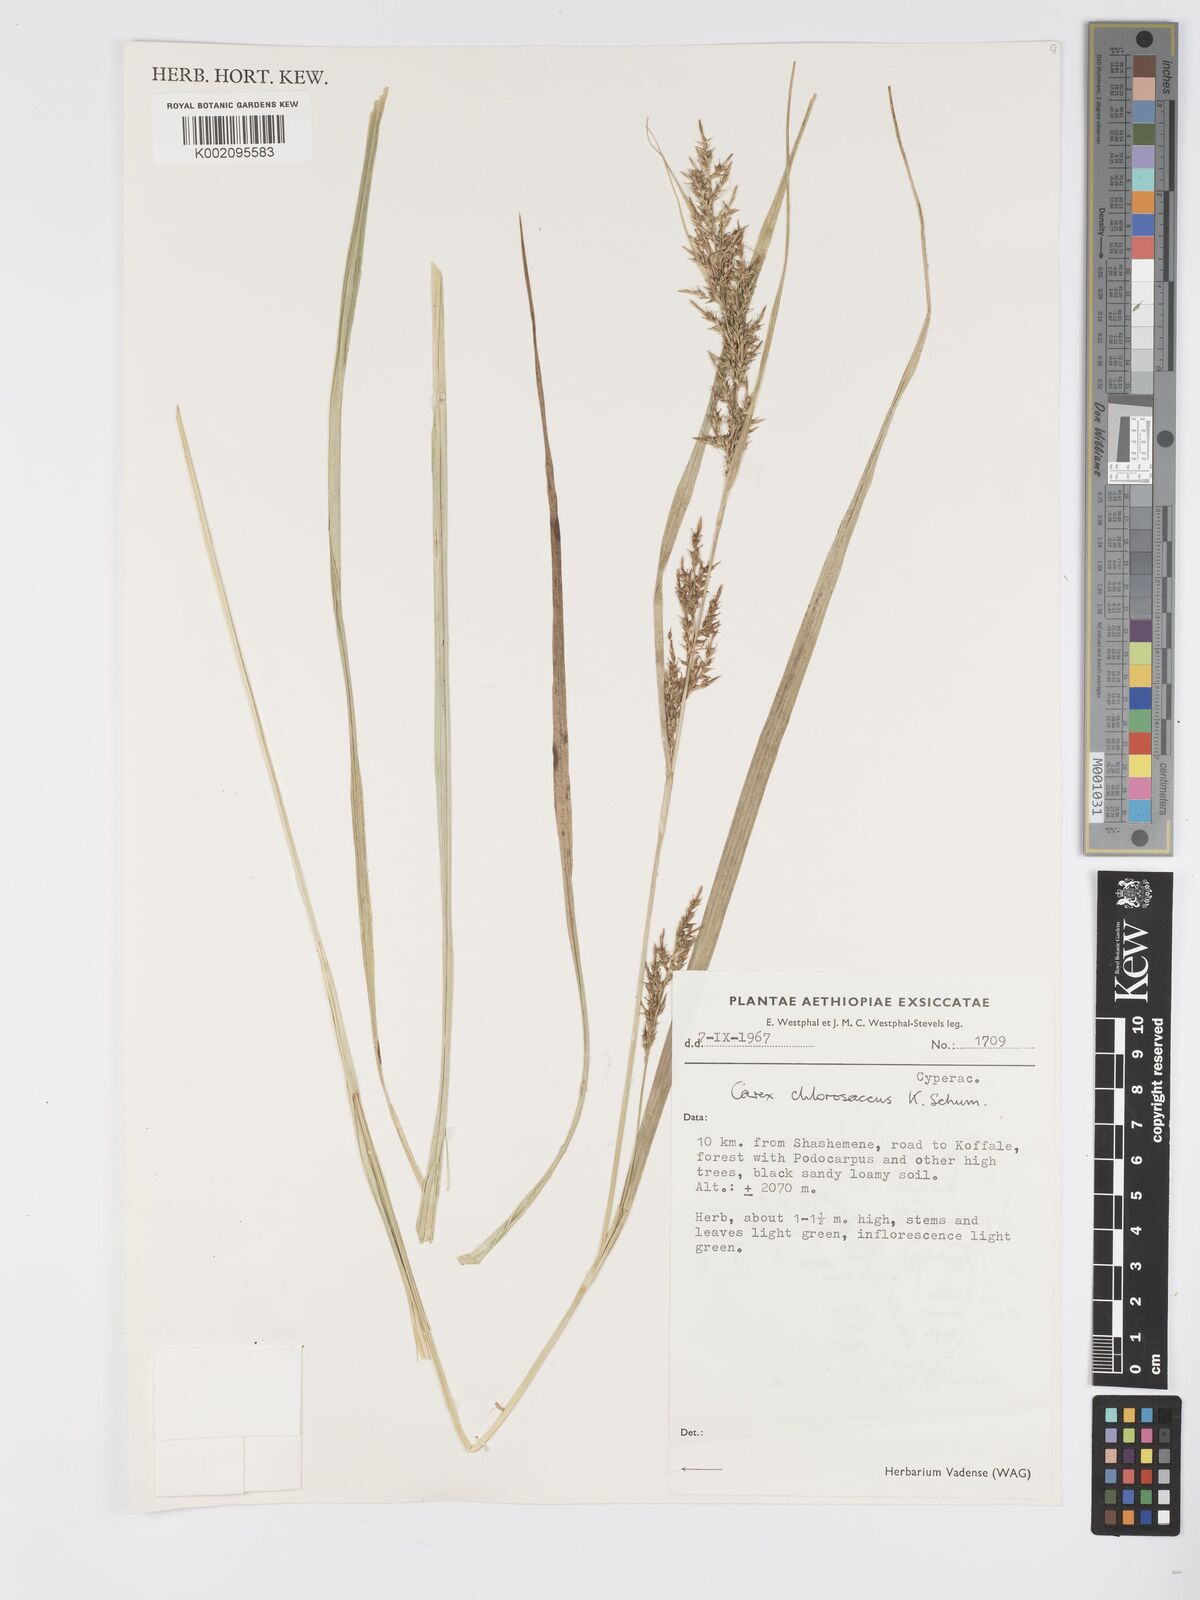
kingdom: Plantae
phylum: Tracheophyta
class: Liliopsida
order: Poales
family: Cyperaceae
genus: Carex
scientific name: Carex chlorosaccus
